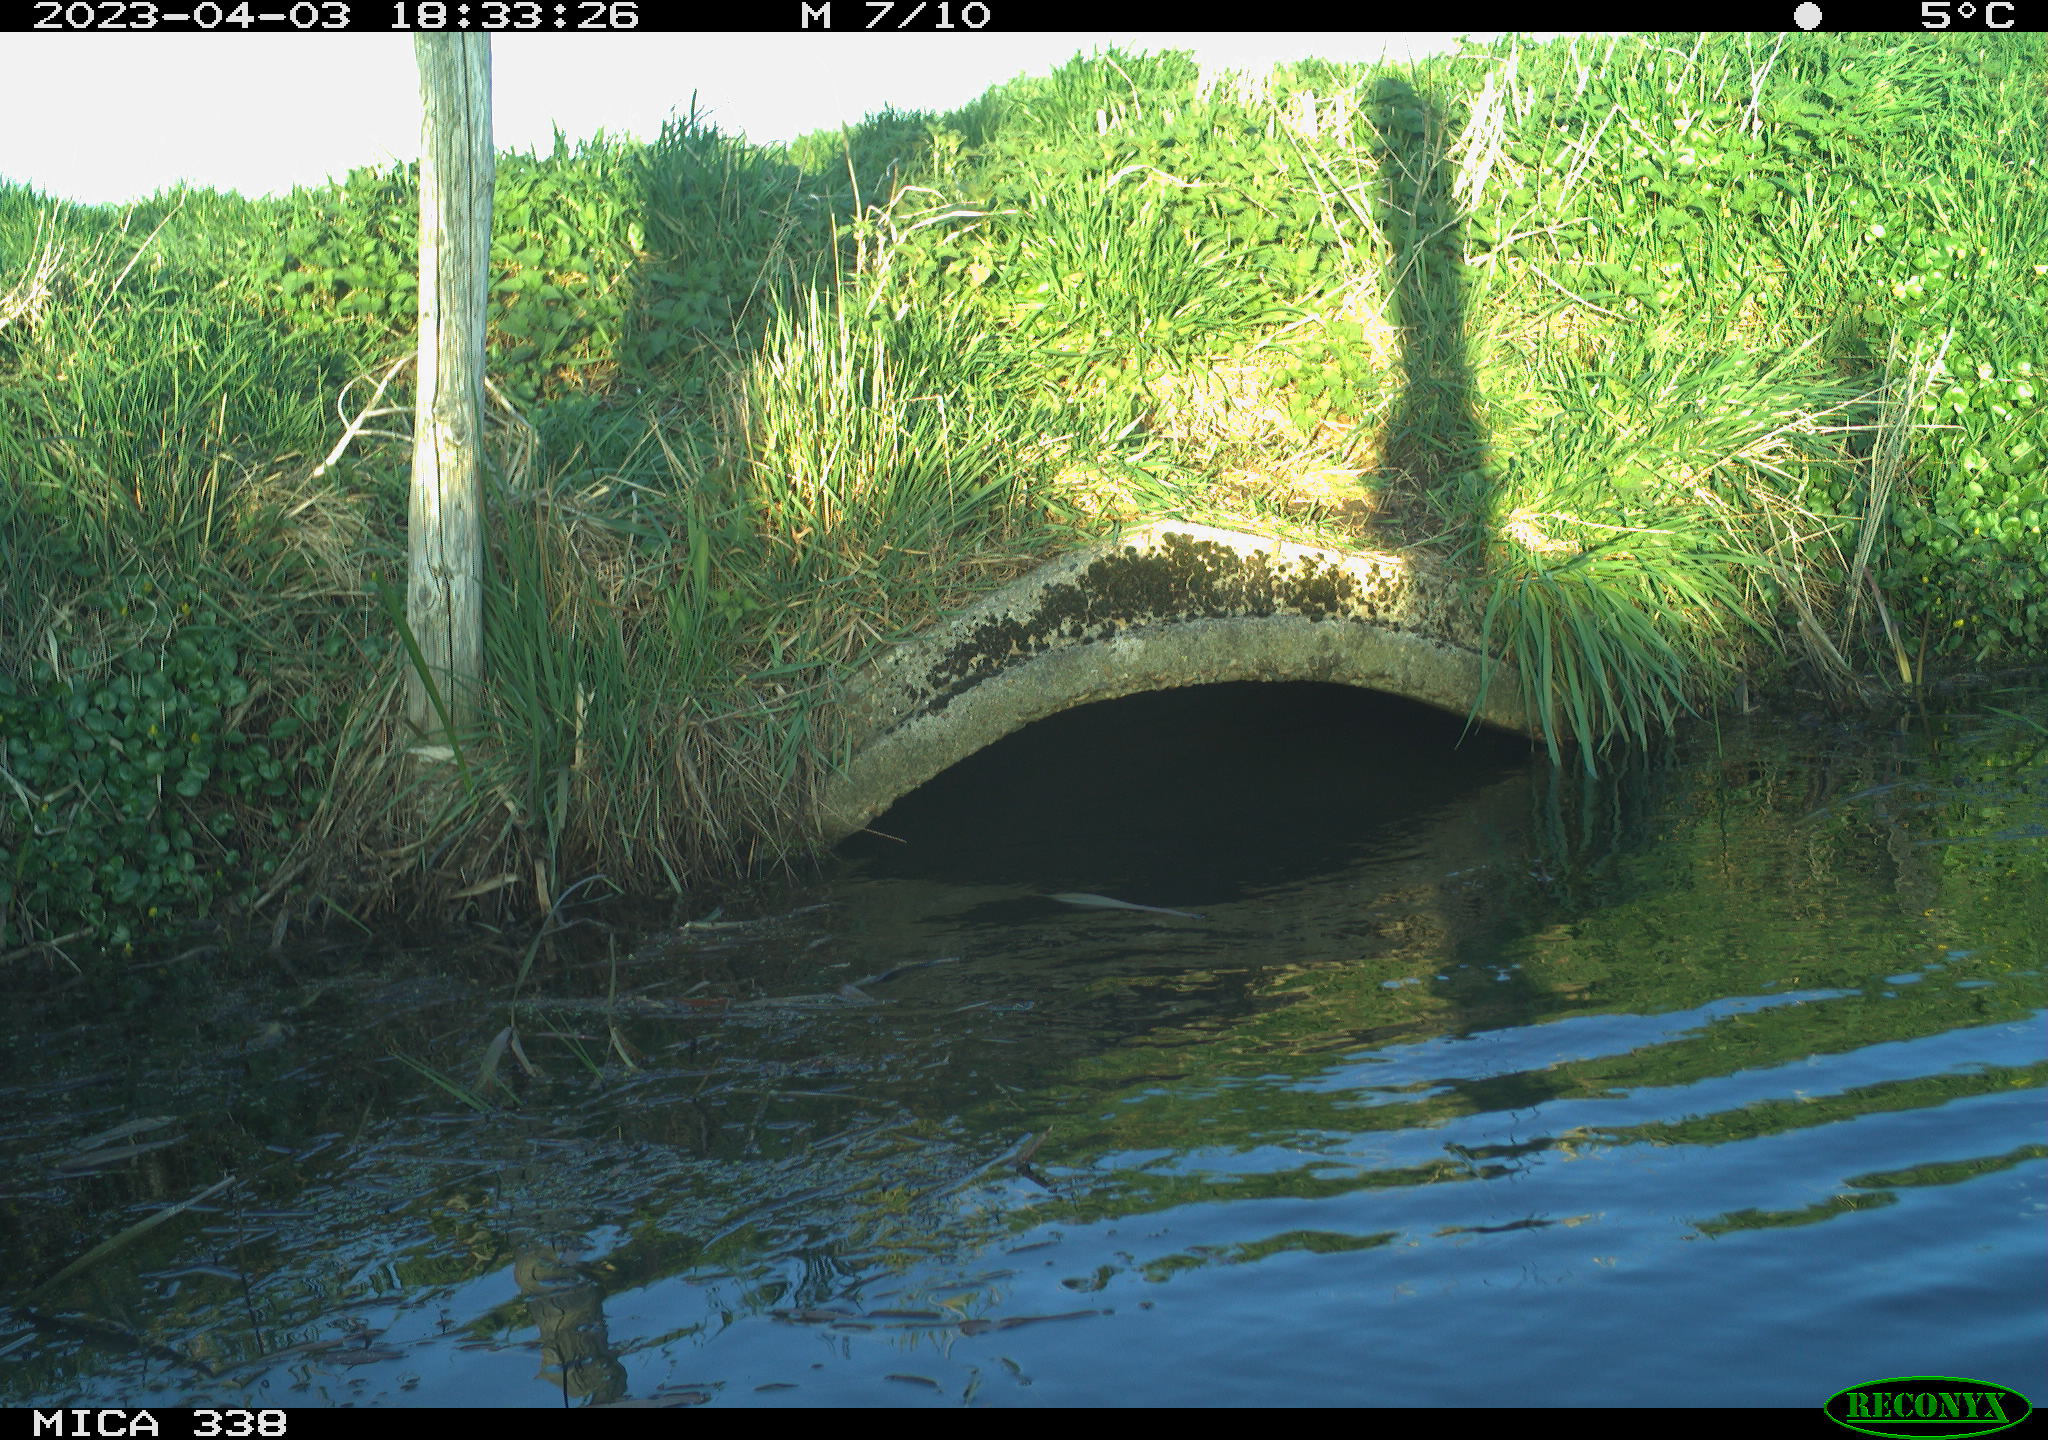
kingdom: Animalia
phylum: Chordata
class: Aves
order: Anseriformes
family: Anatidae
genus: Anas
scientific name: Anas
